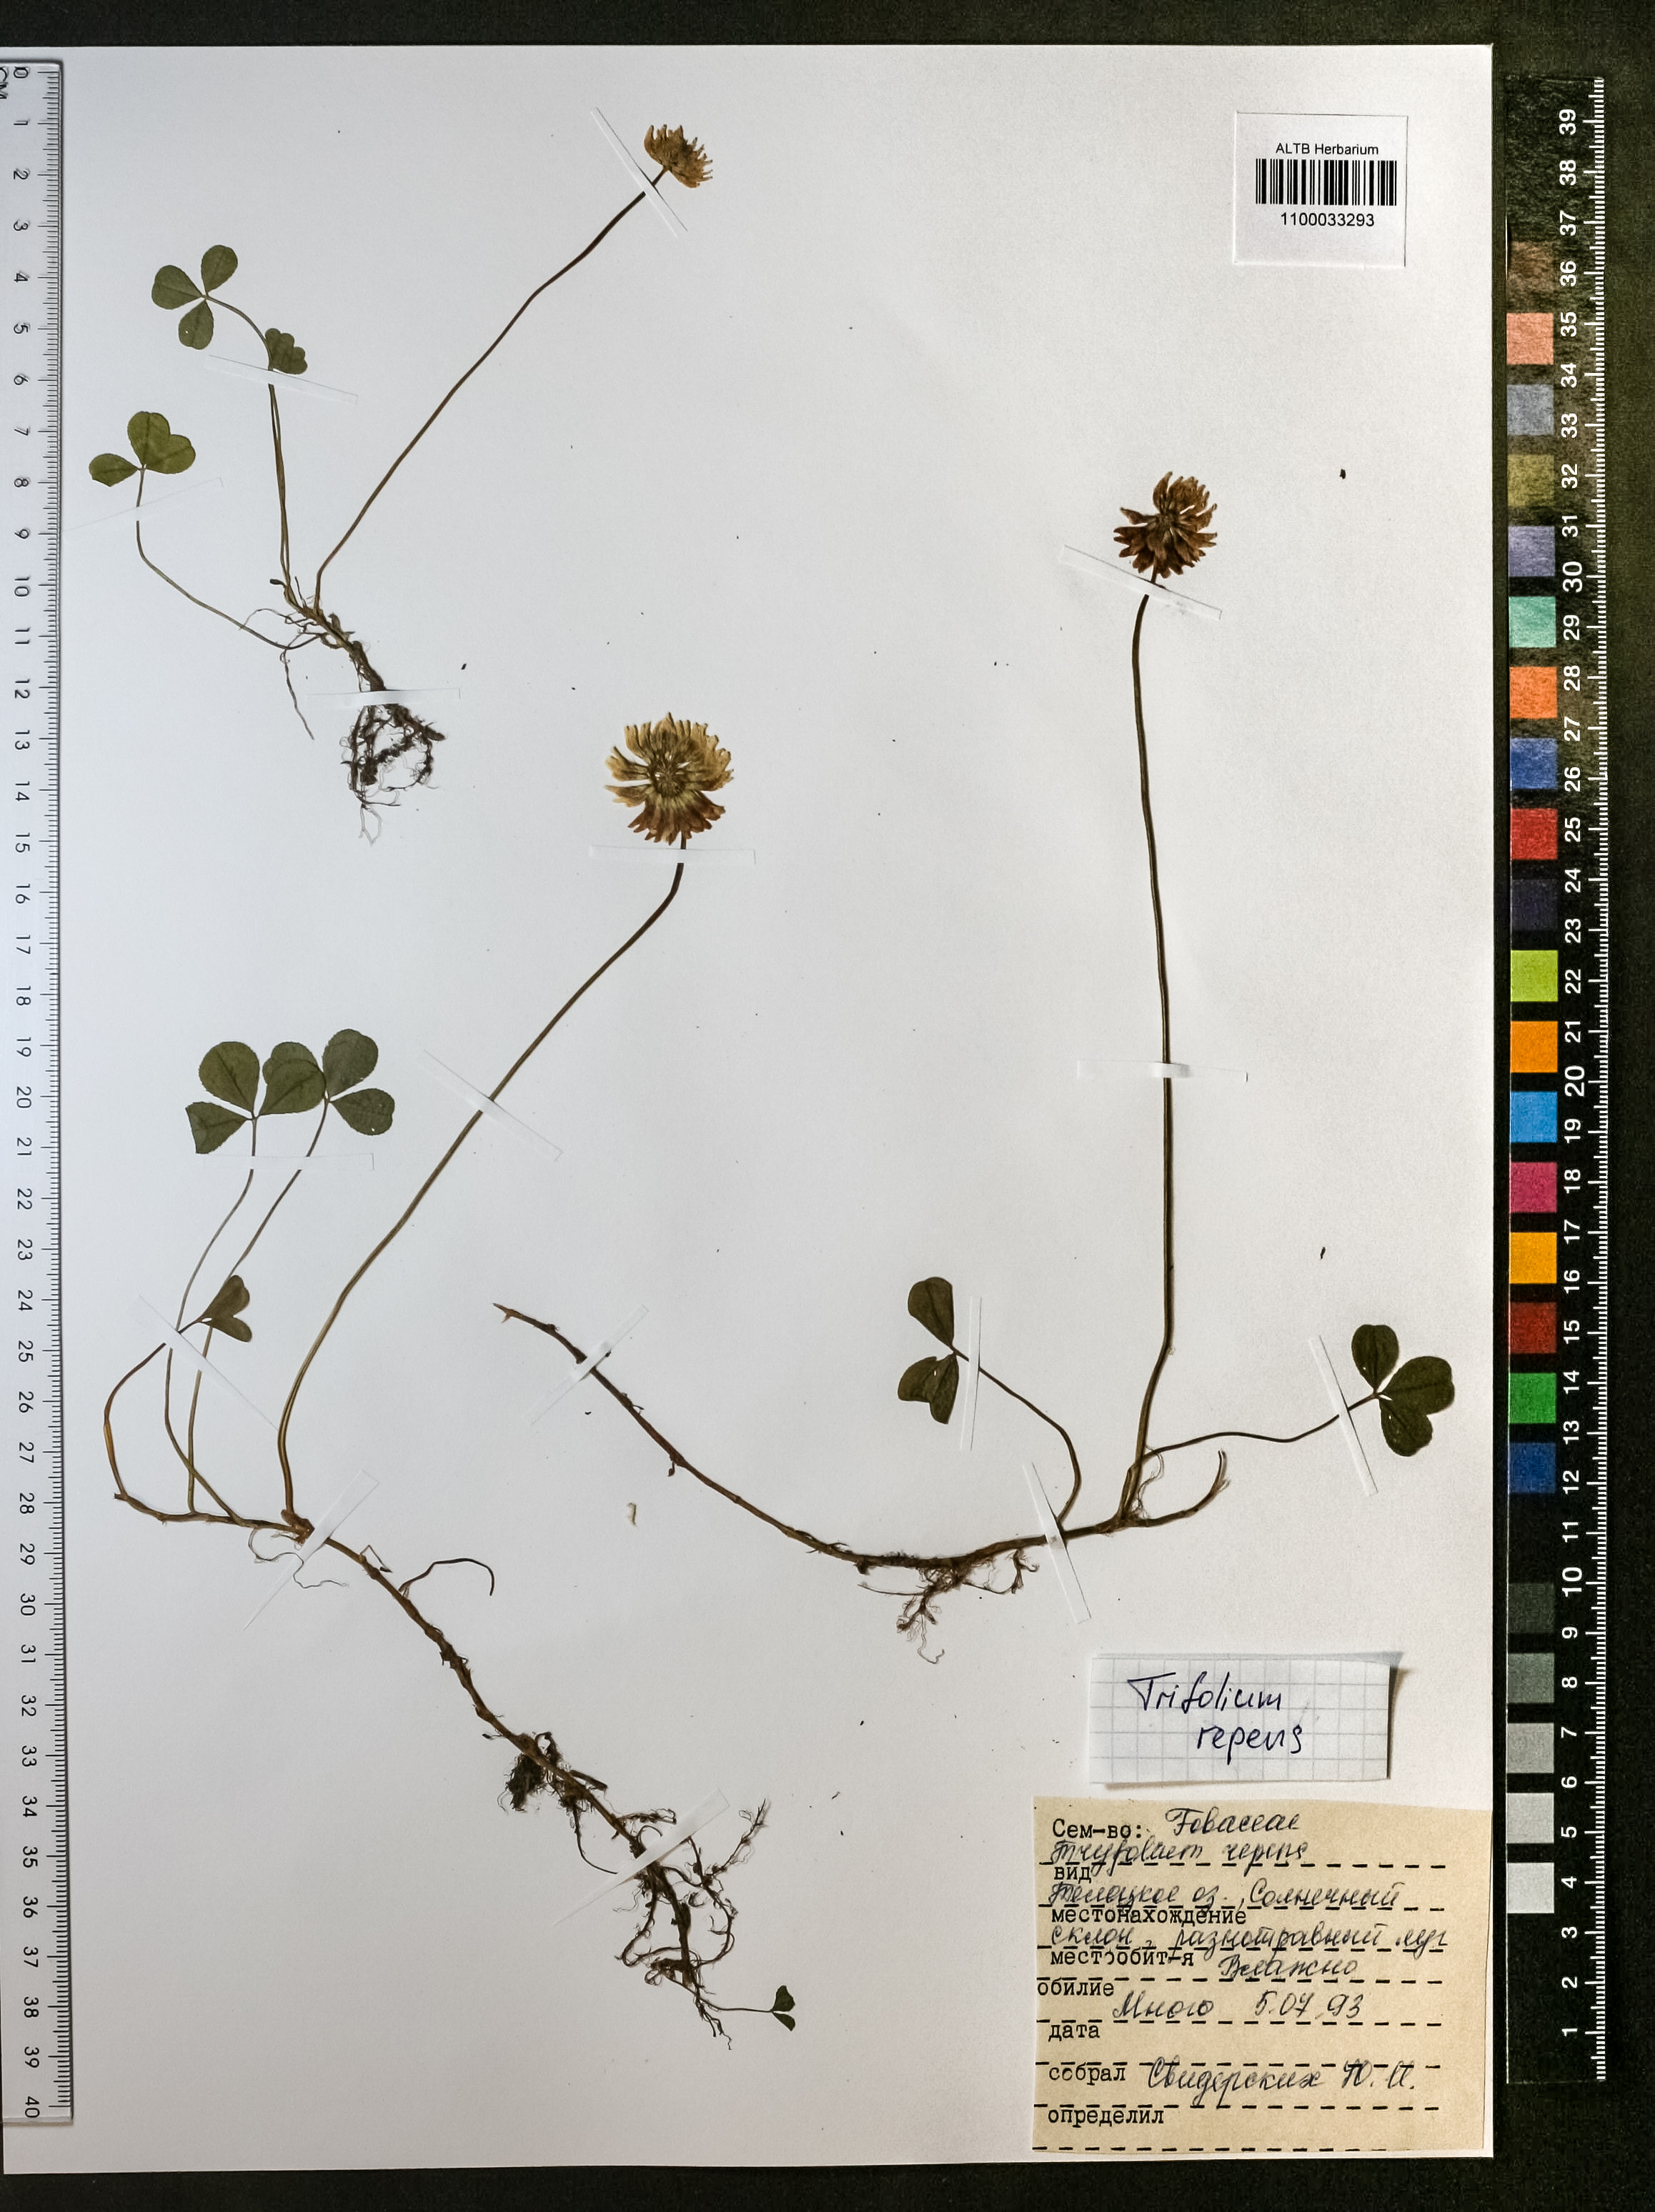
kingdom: Plantae
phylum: Tracheophyta
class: Magnoliopsida
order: Fabales
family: Fabaceae
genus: Trifolium
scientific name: Trifolium repens
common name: White clover
